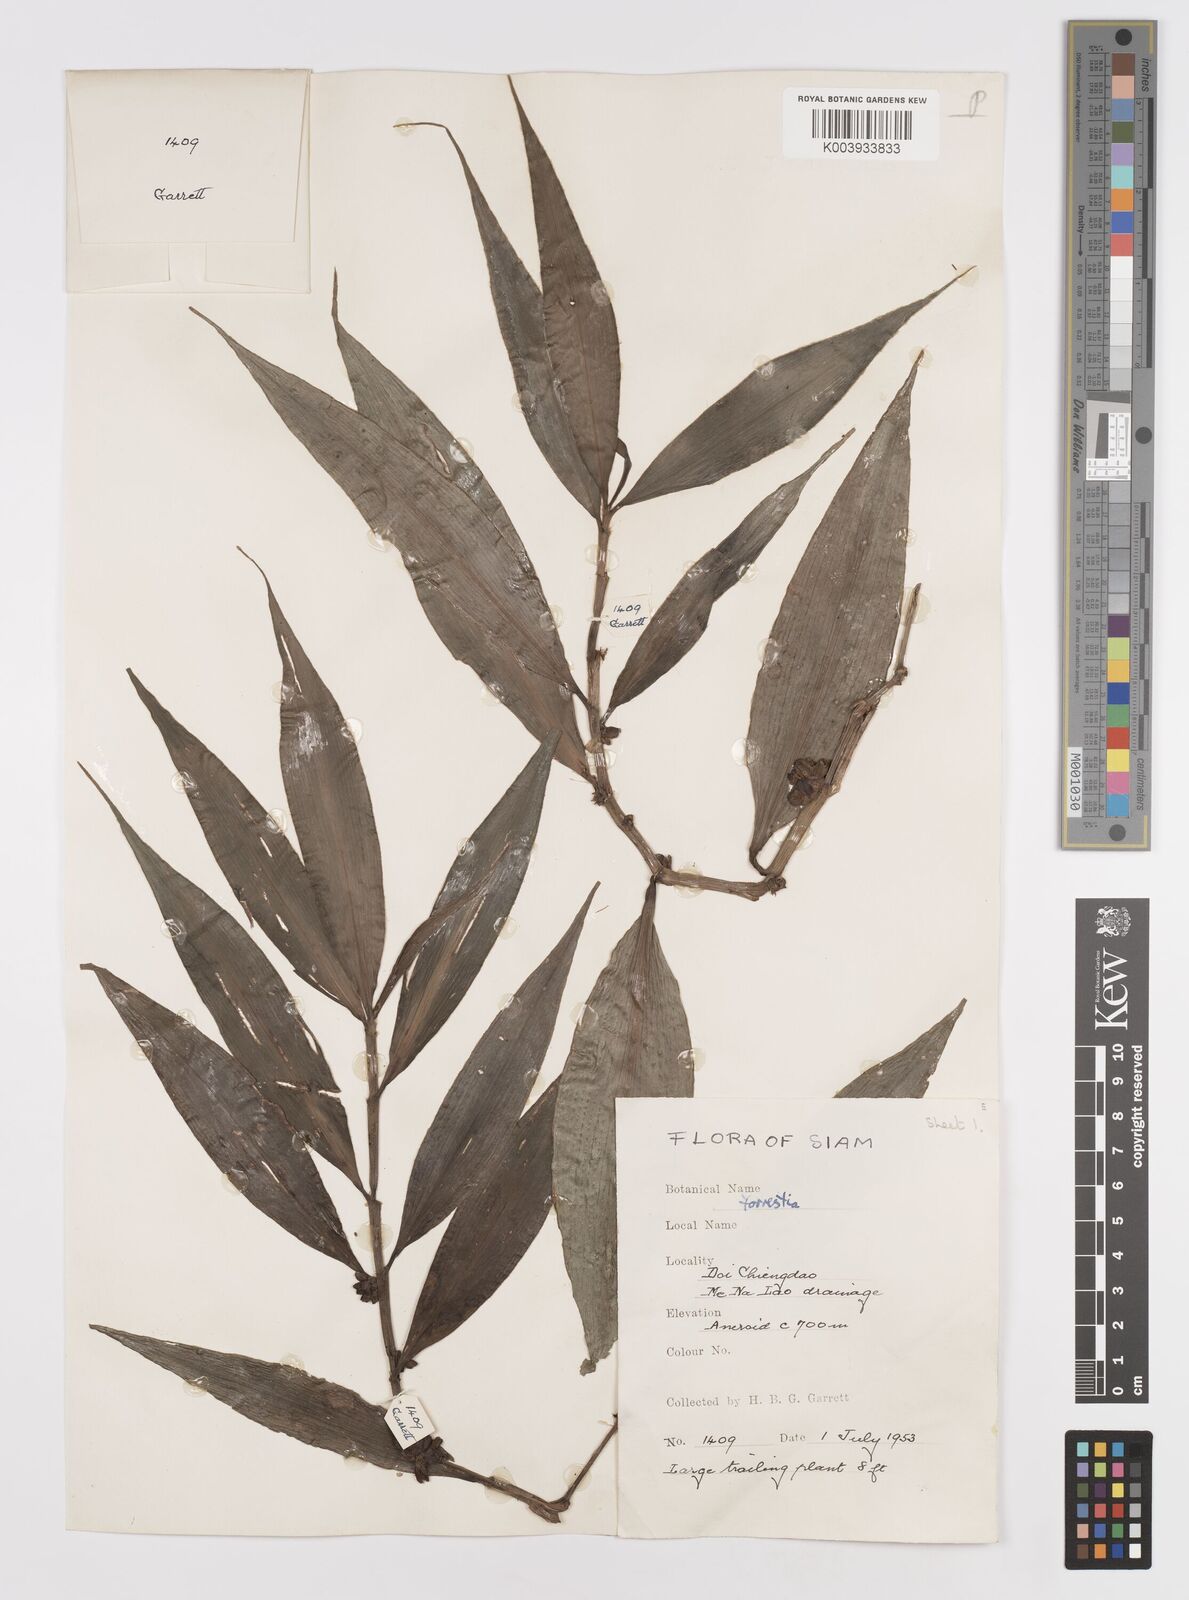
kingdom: Plantae
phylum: Tracheophyta
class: Liliopsida
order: Commelinales
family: Commelinaceae
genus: Amischotolype
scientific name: Amischotolype glabrata
